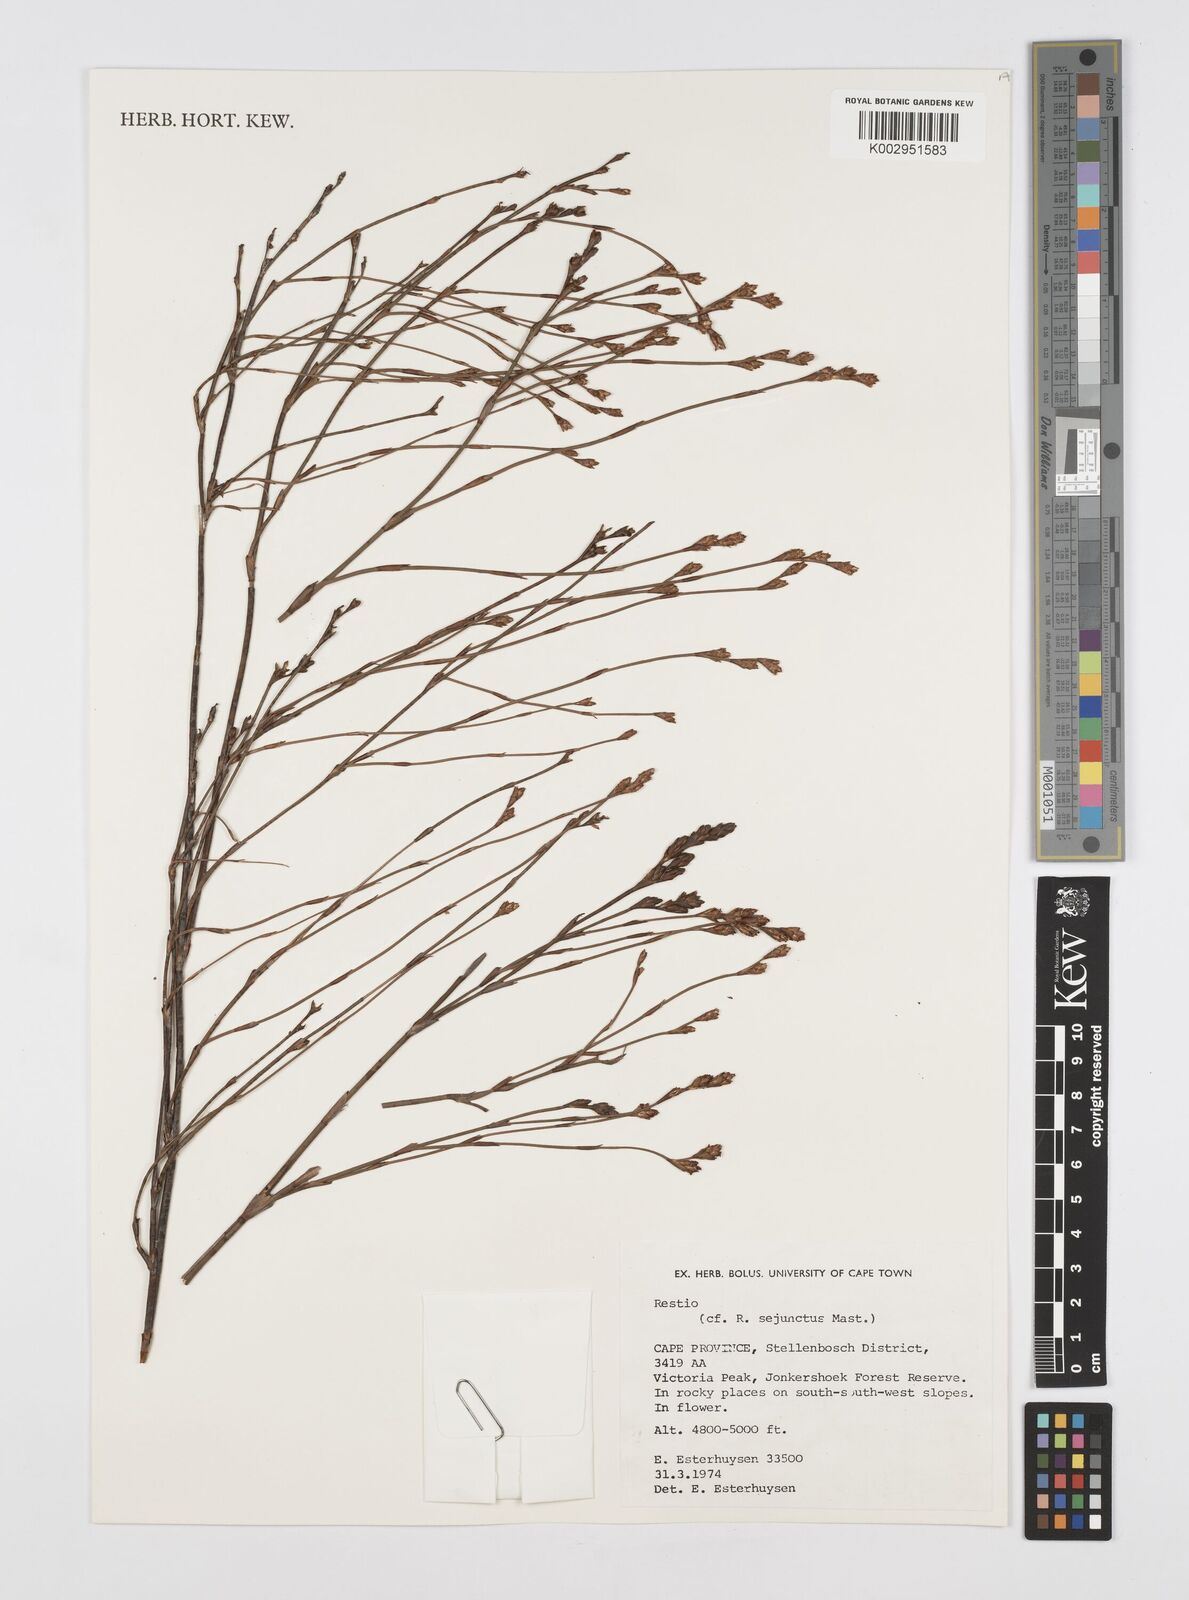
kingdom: Plantae
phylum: Tracheophyta
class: Liliopsida
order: Poales
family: Restionaceae
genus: Restio
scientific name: Restio sejunctus
